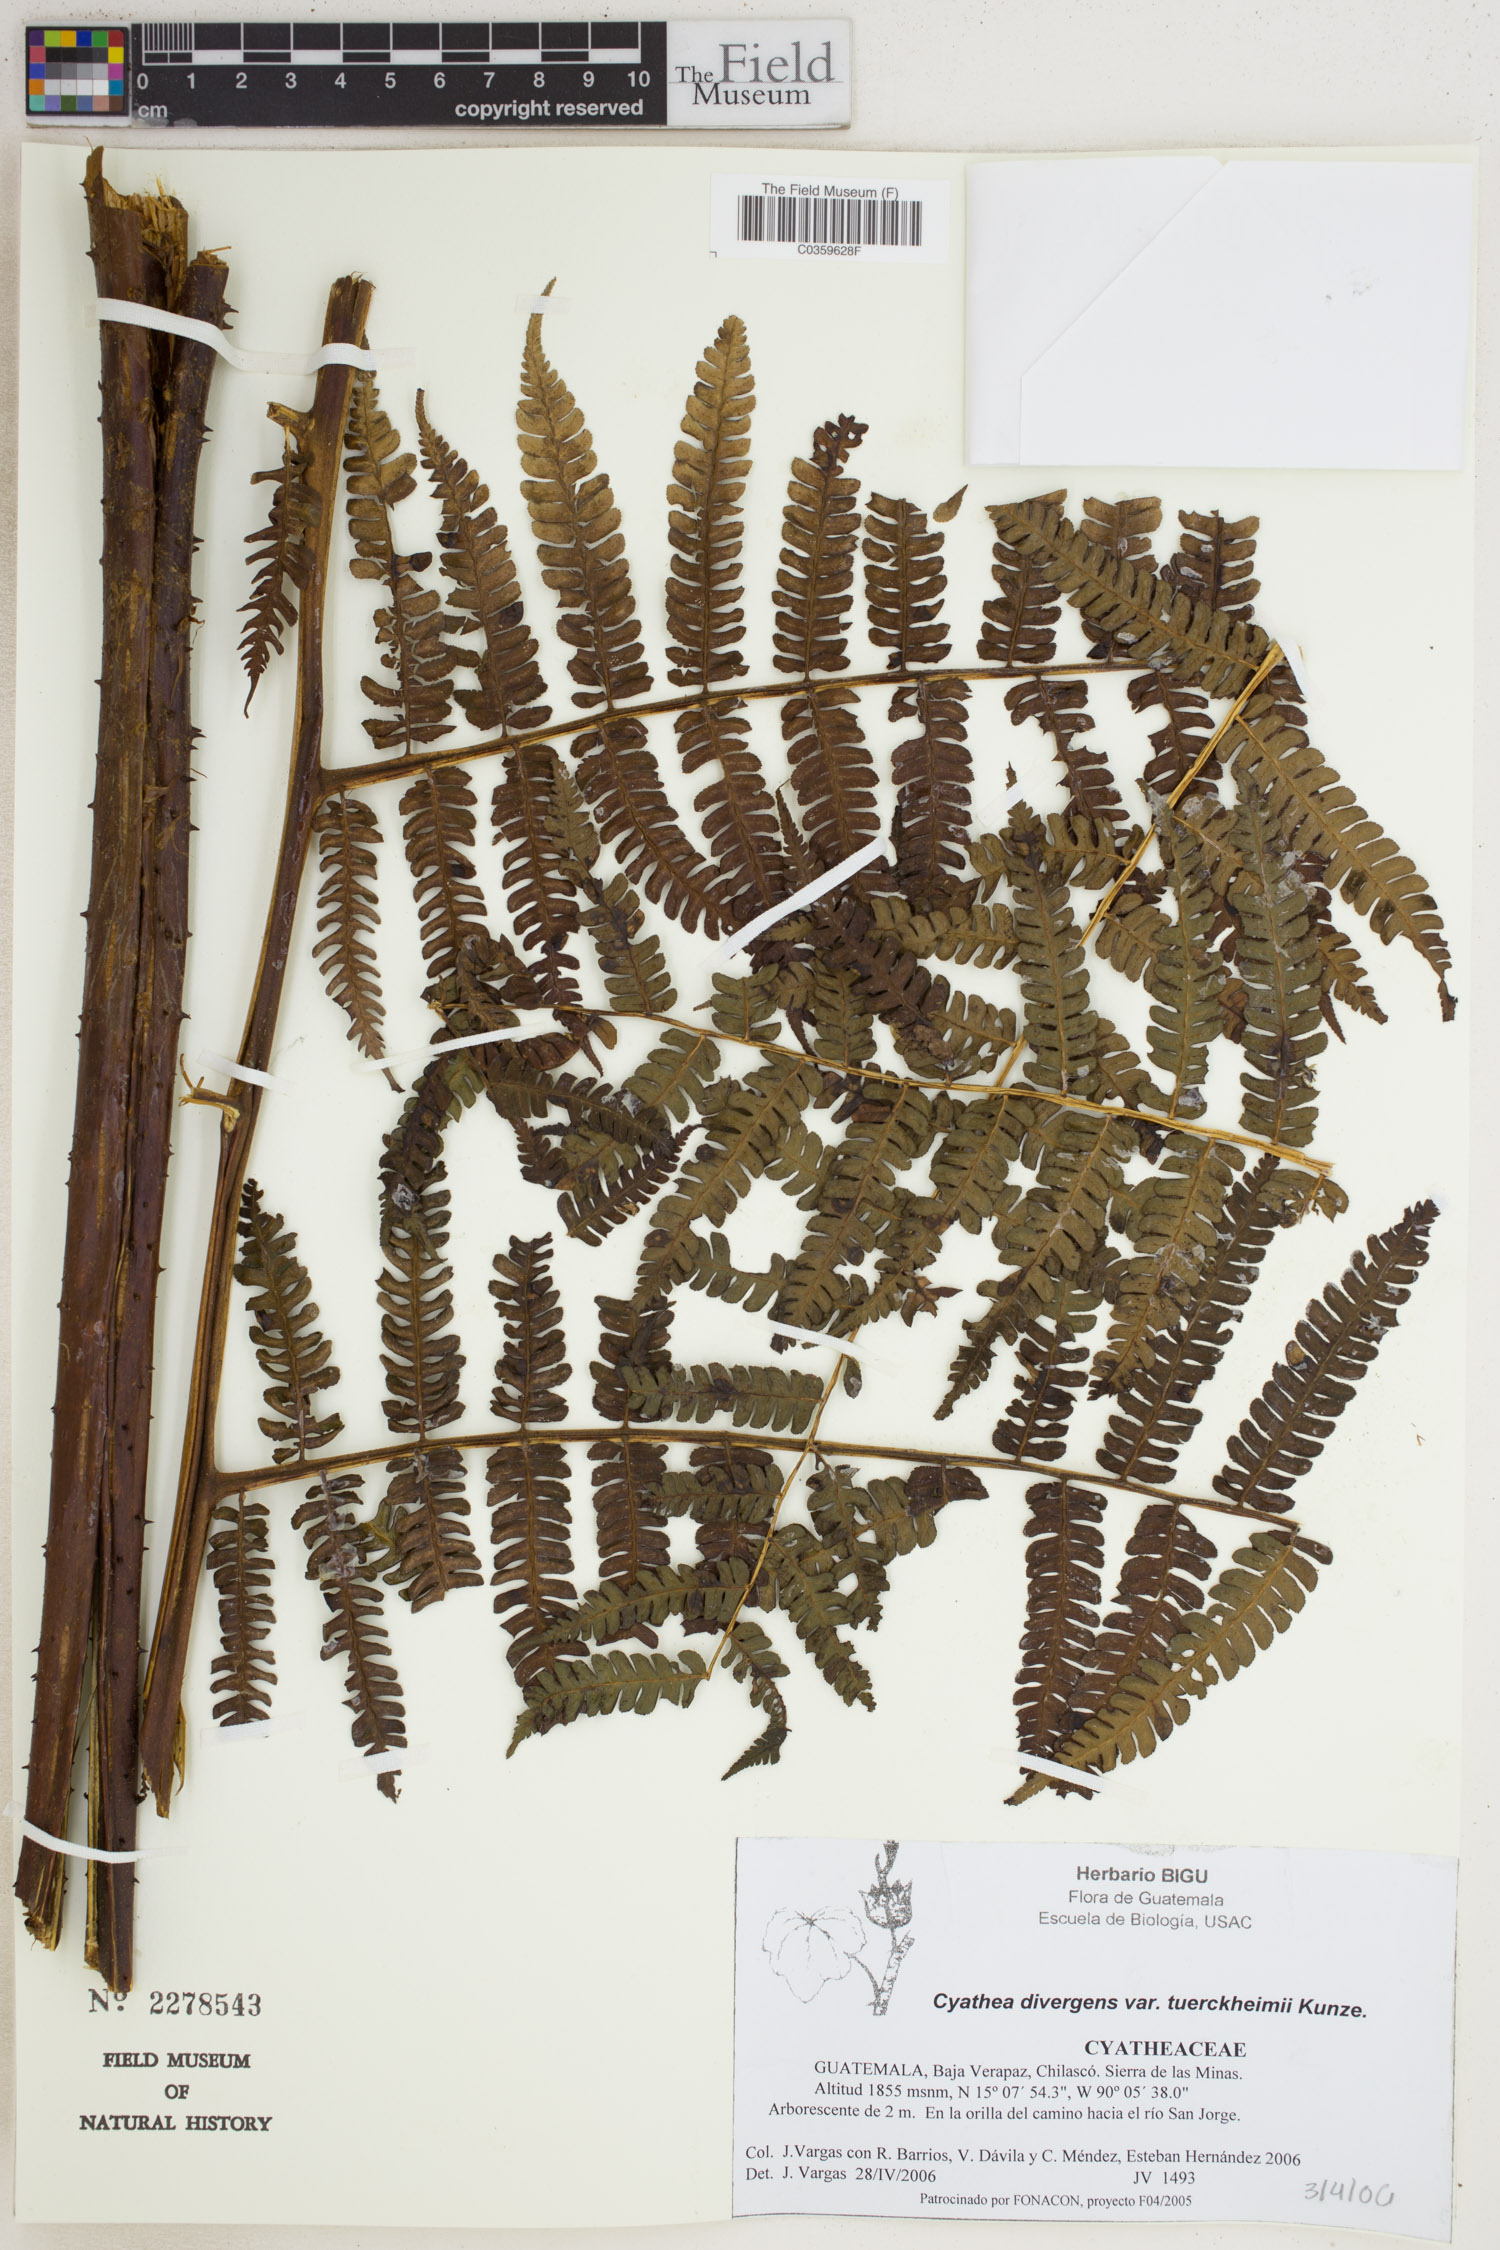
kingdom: Plantae
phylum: Tracheophyta
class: Polypodiopsida
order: Cyatheales
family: Cyatheaceae
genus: Cyathea
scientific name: Cyathea tuerckheimii
